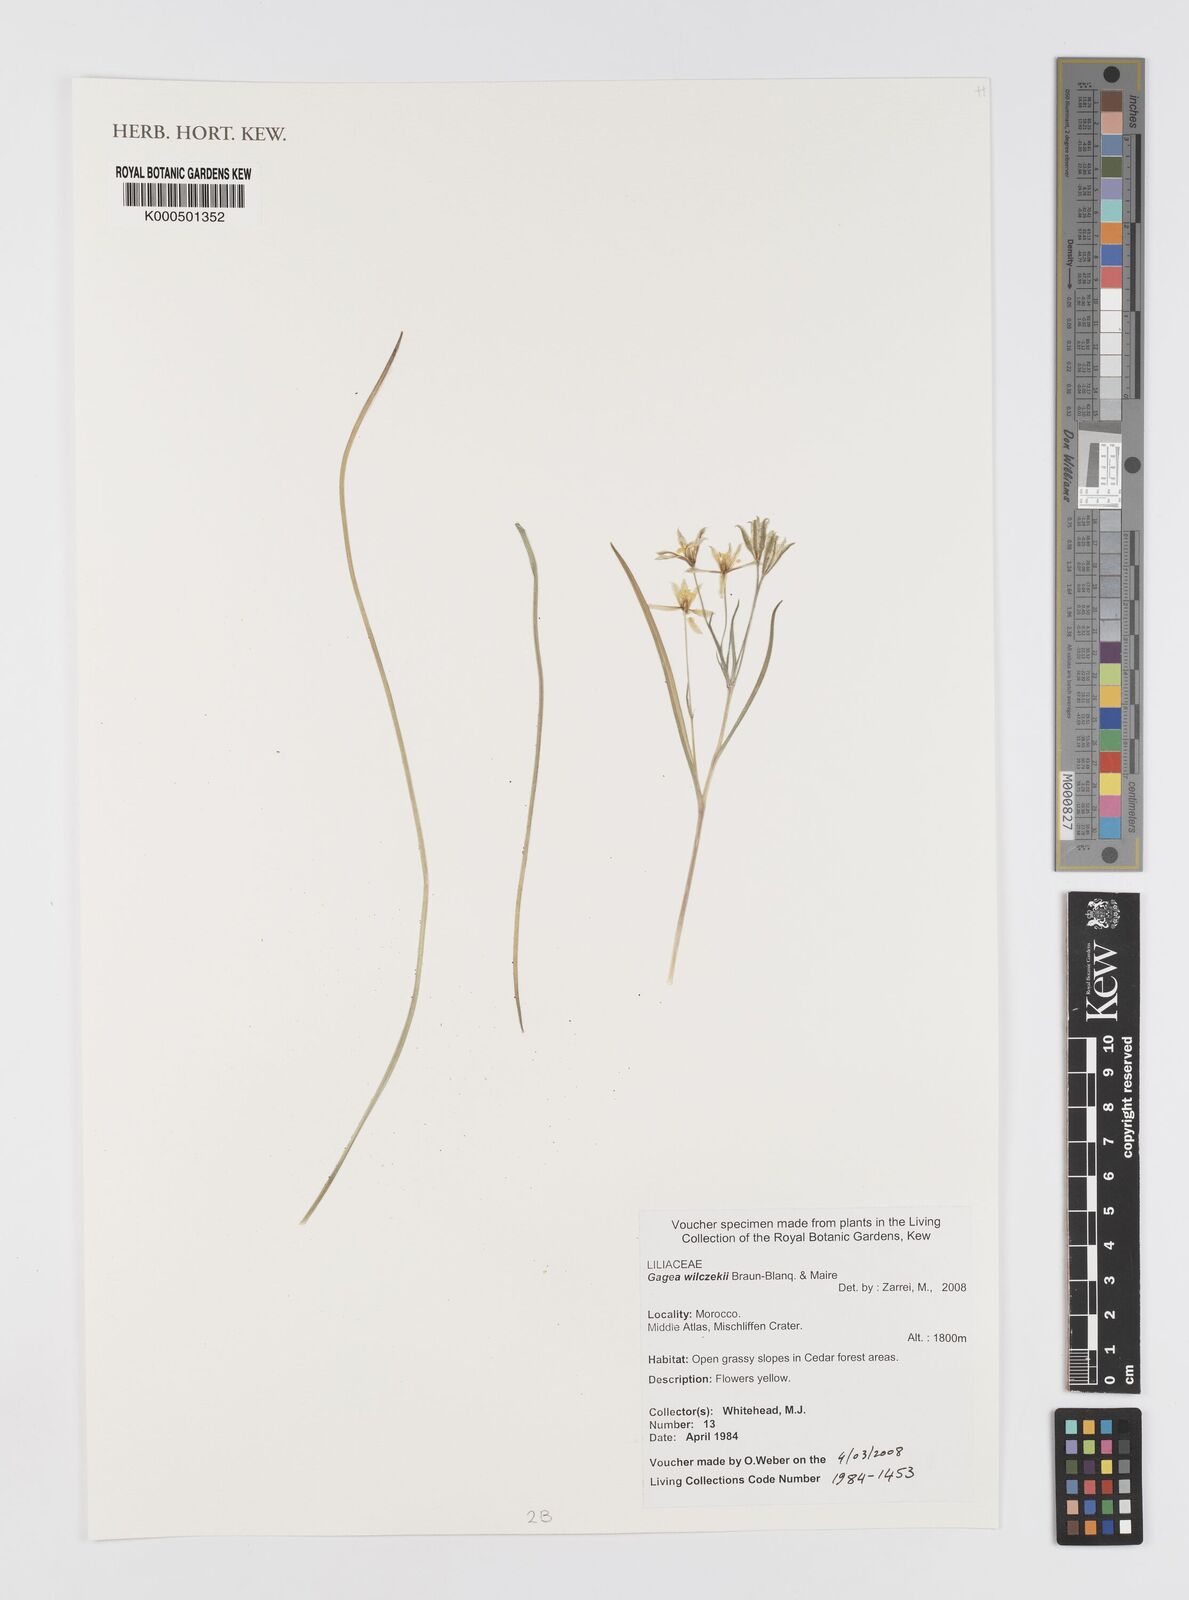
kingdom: Plantae
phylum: Tracheophyta
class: Liliopsida
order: Liliales
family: Liliaceae
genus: Gagea
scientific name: Gagea algeriensis
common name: Algerian gagea
